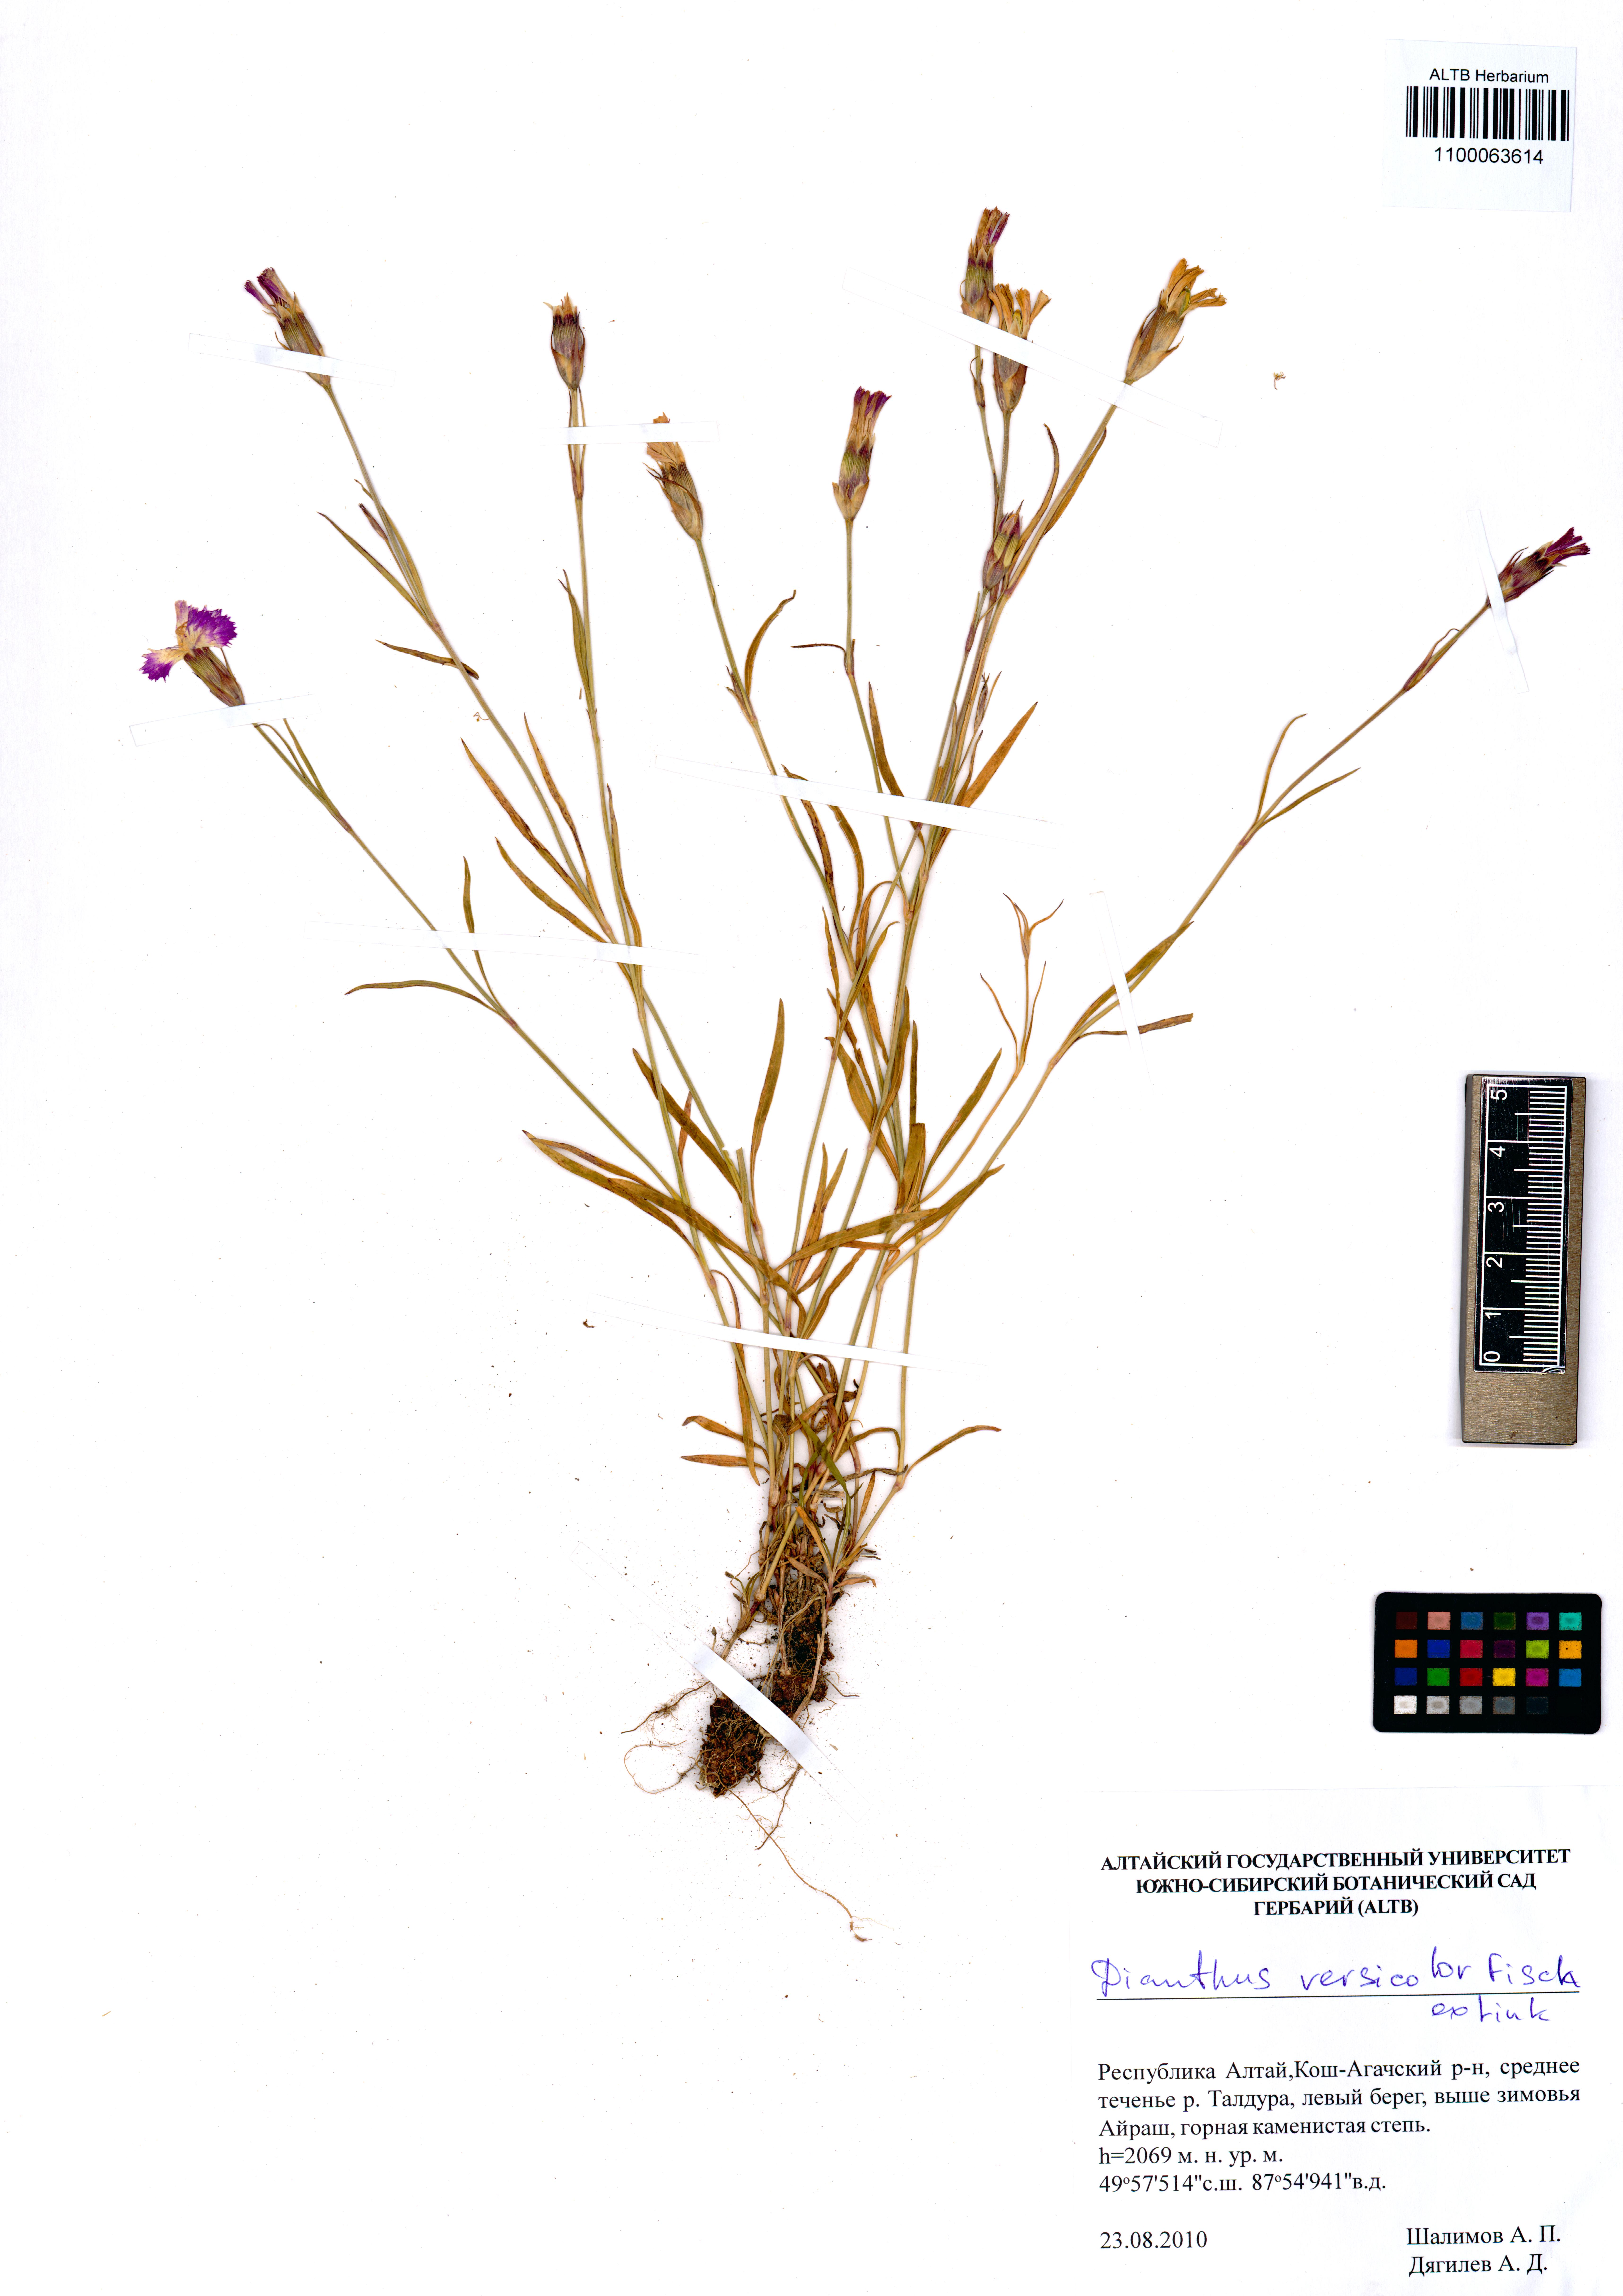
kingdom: Plantae
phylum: Tracheophyta
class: Magnoliopsida
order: Caryophyllales
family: Caryophyllaceae
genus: Dianthus
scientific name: Dianthus chinensis
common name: Rainbow pink
